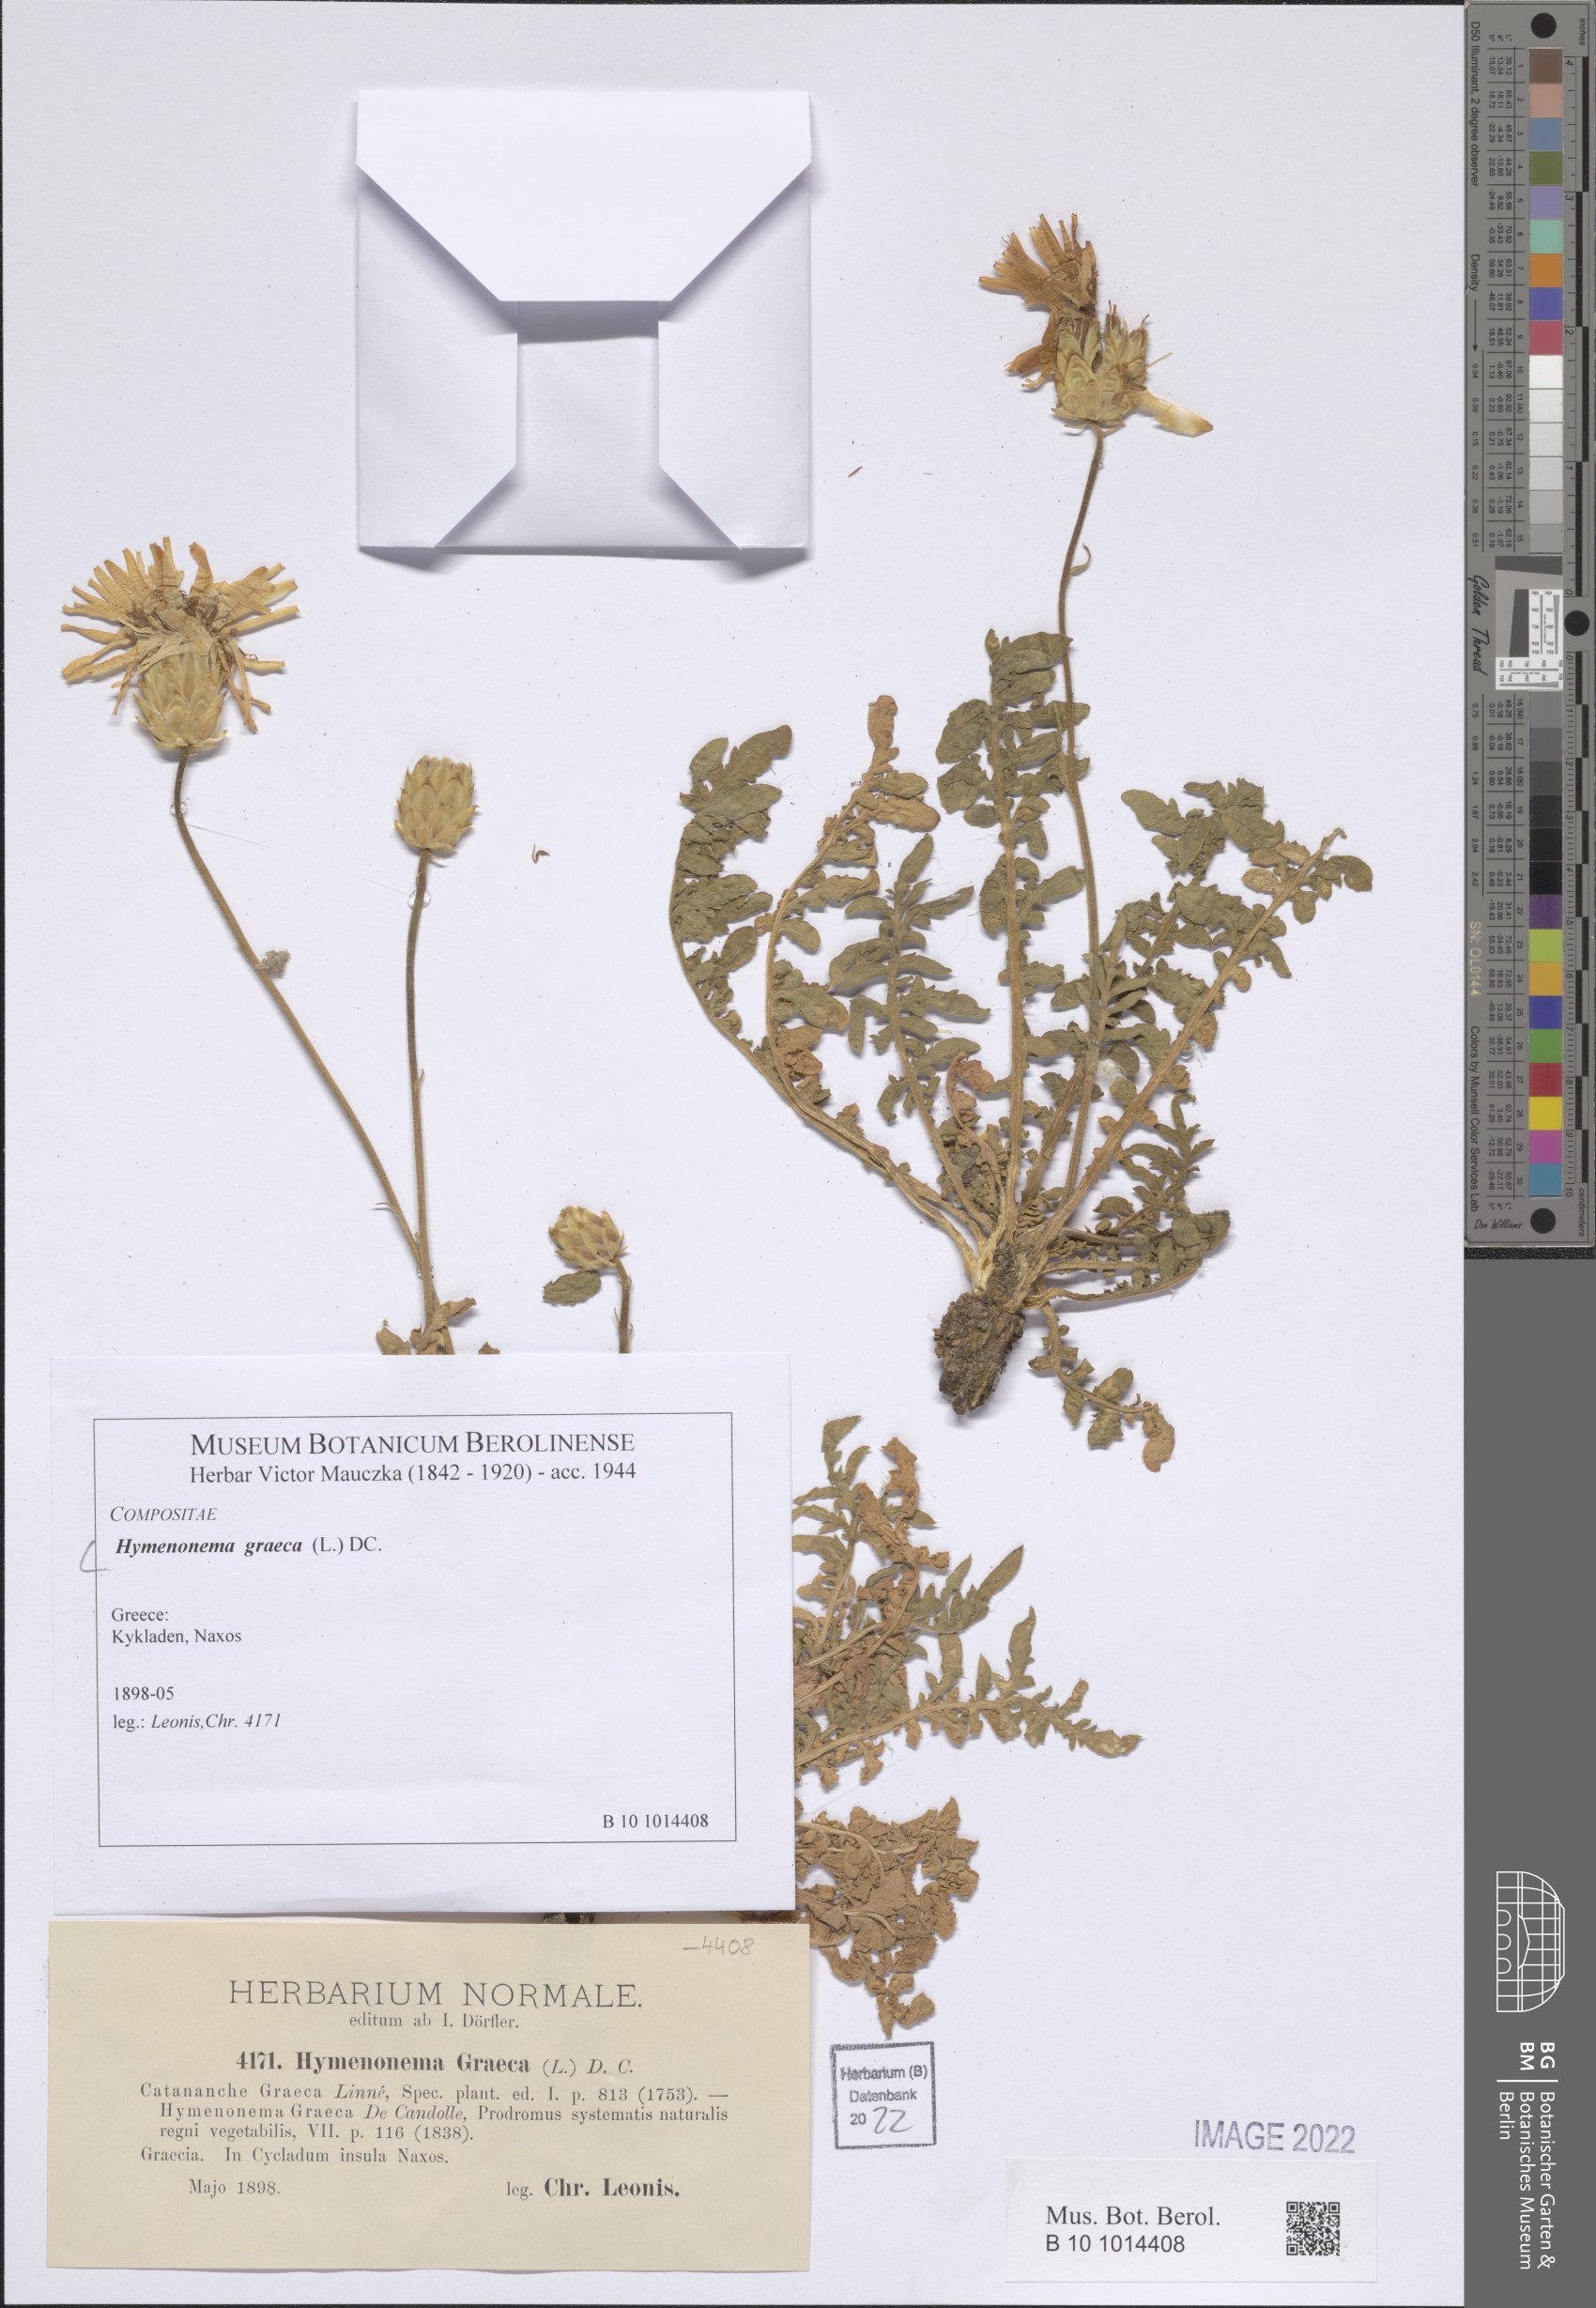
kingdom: Plantae
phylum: Tracheophyta
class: Magnoliopsida
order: Asterales
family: Asteraceae
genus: Hymenonema
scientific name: Hymenonema graecum
